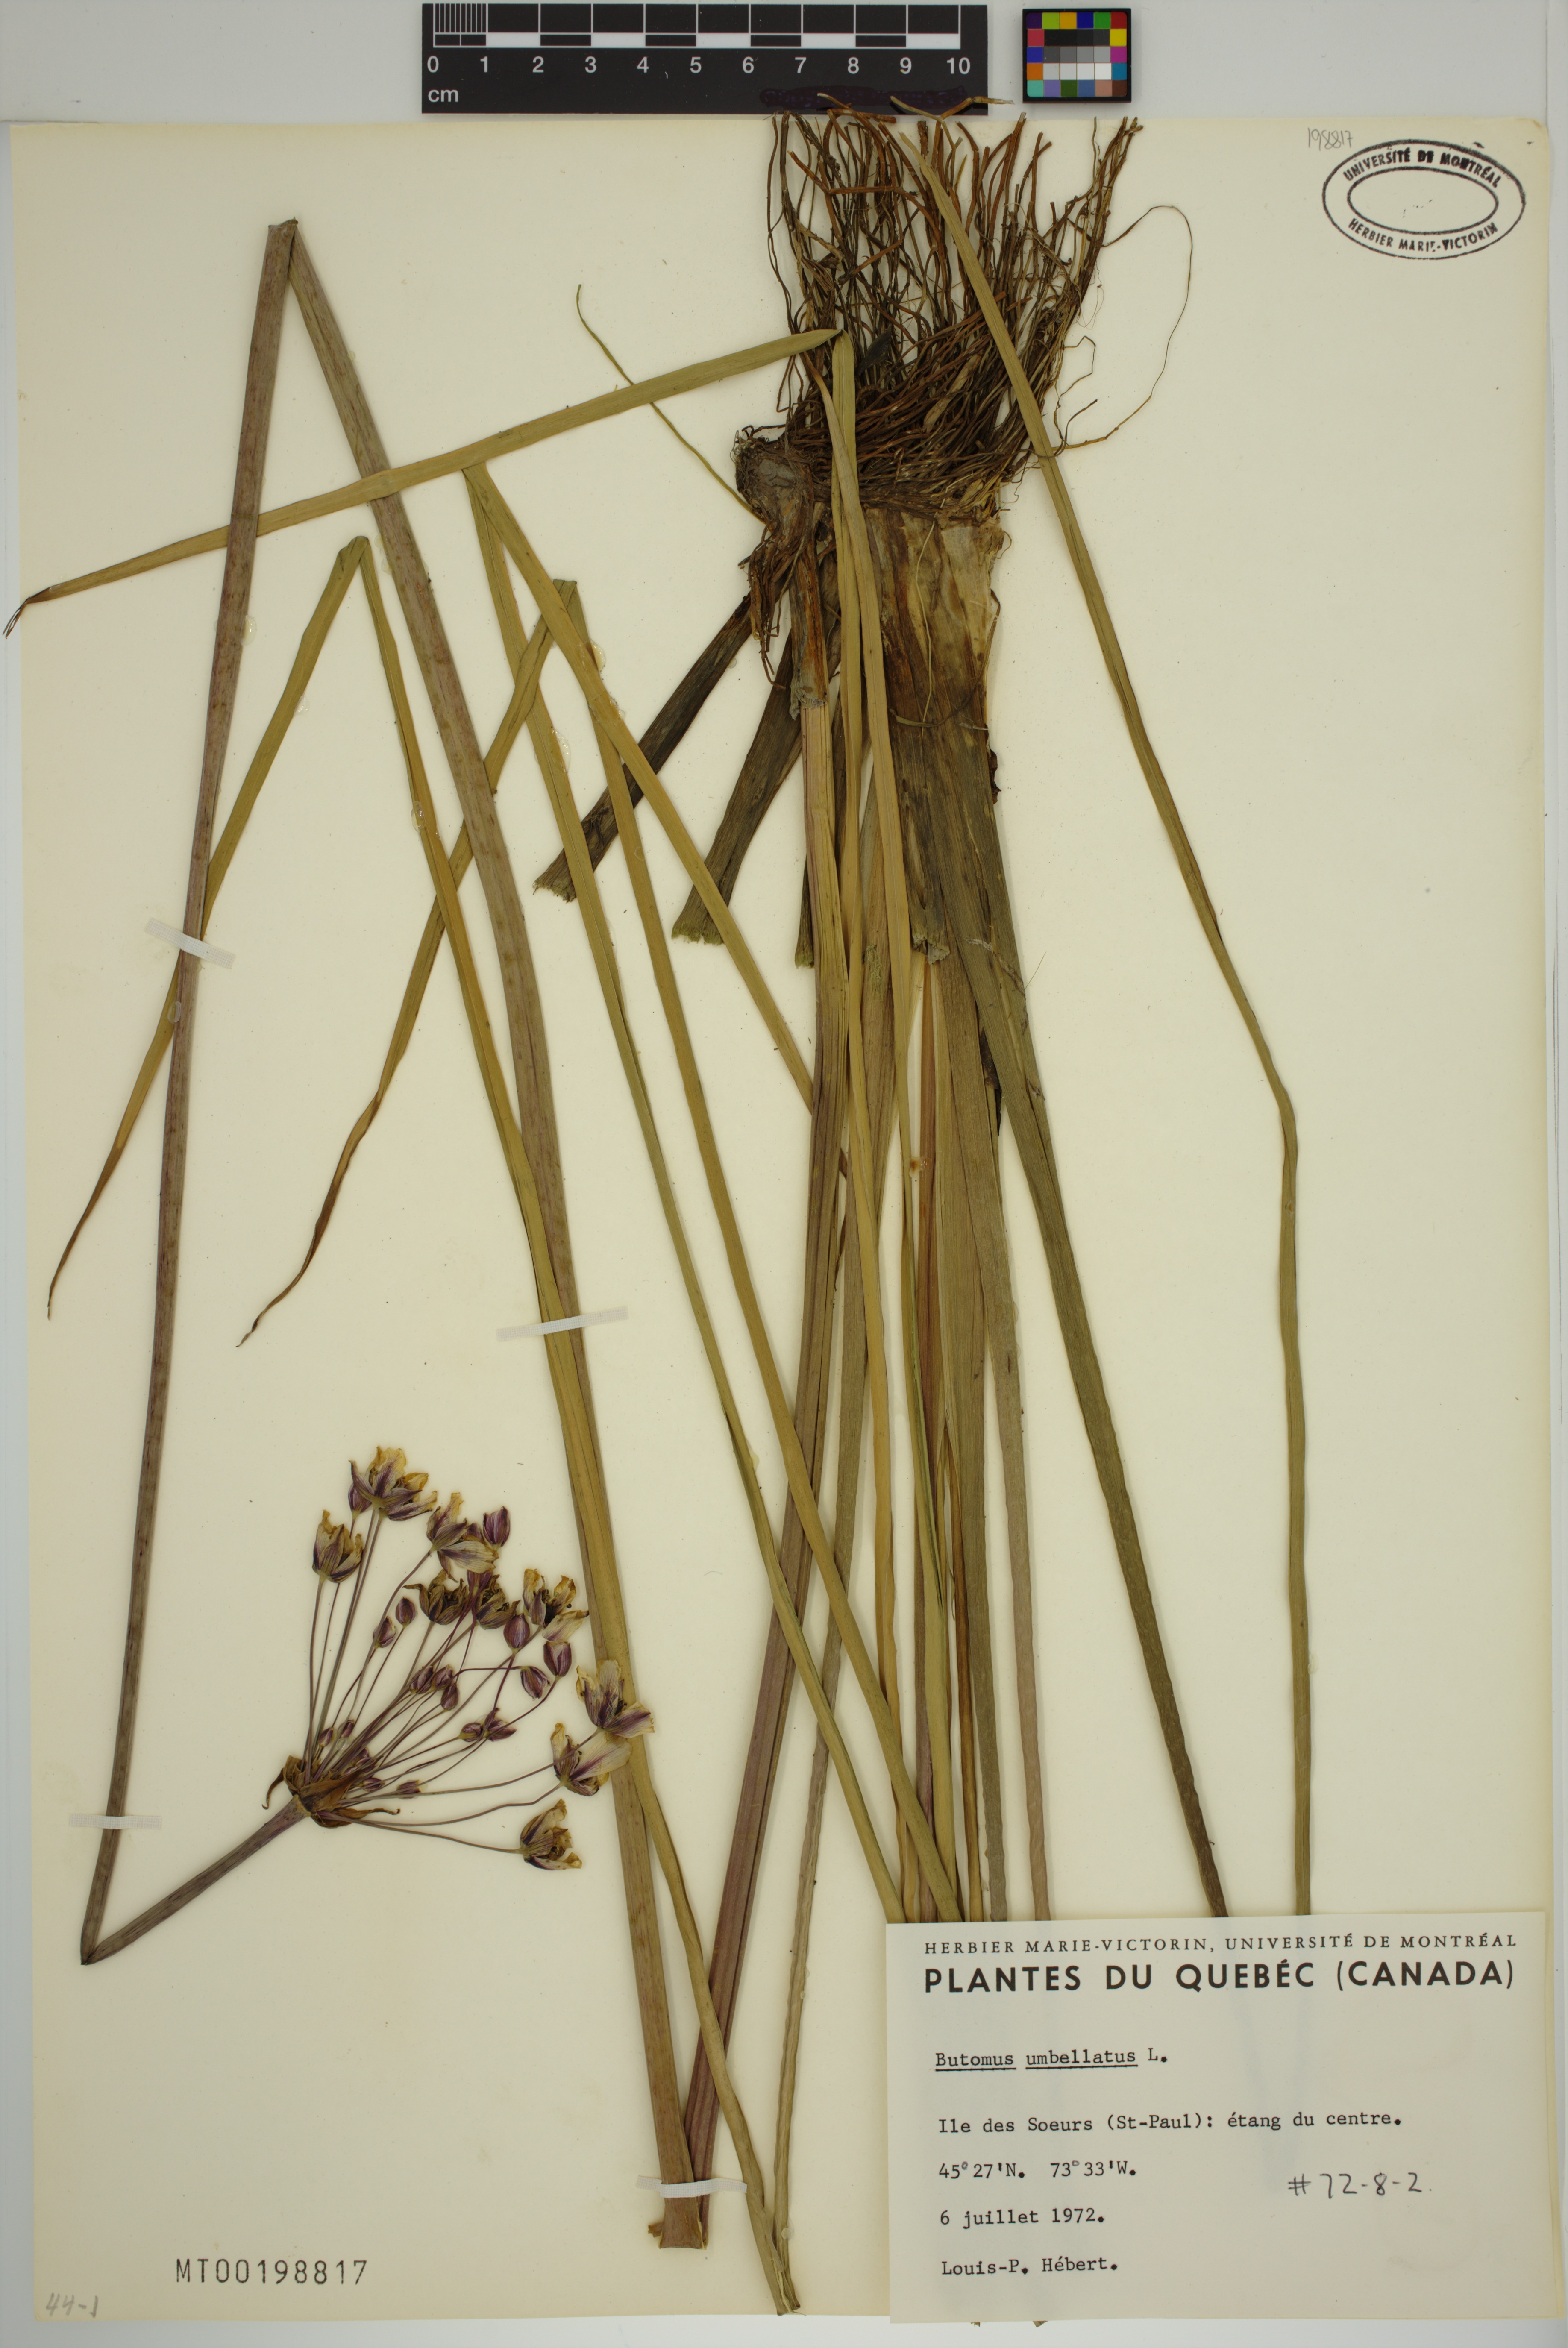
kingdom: Plantae
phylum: Tracheophyta
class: Liliopsida
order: Alismatales
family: Butomaceae
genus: Butomus
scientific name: Butomus umbellatus
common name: Flowering-rush
